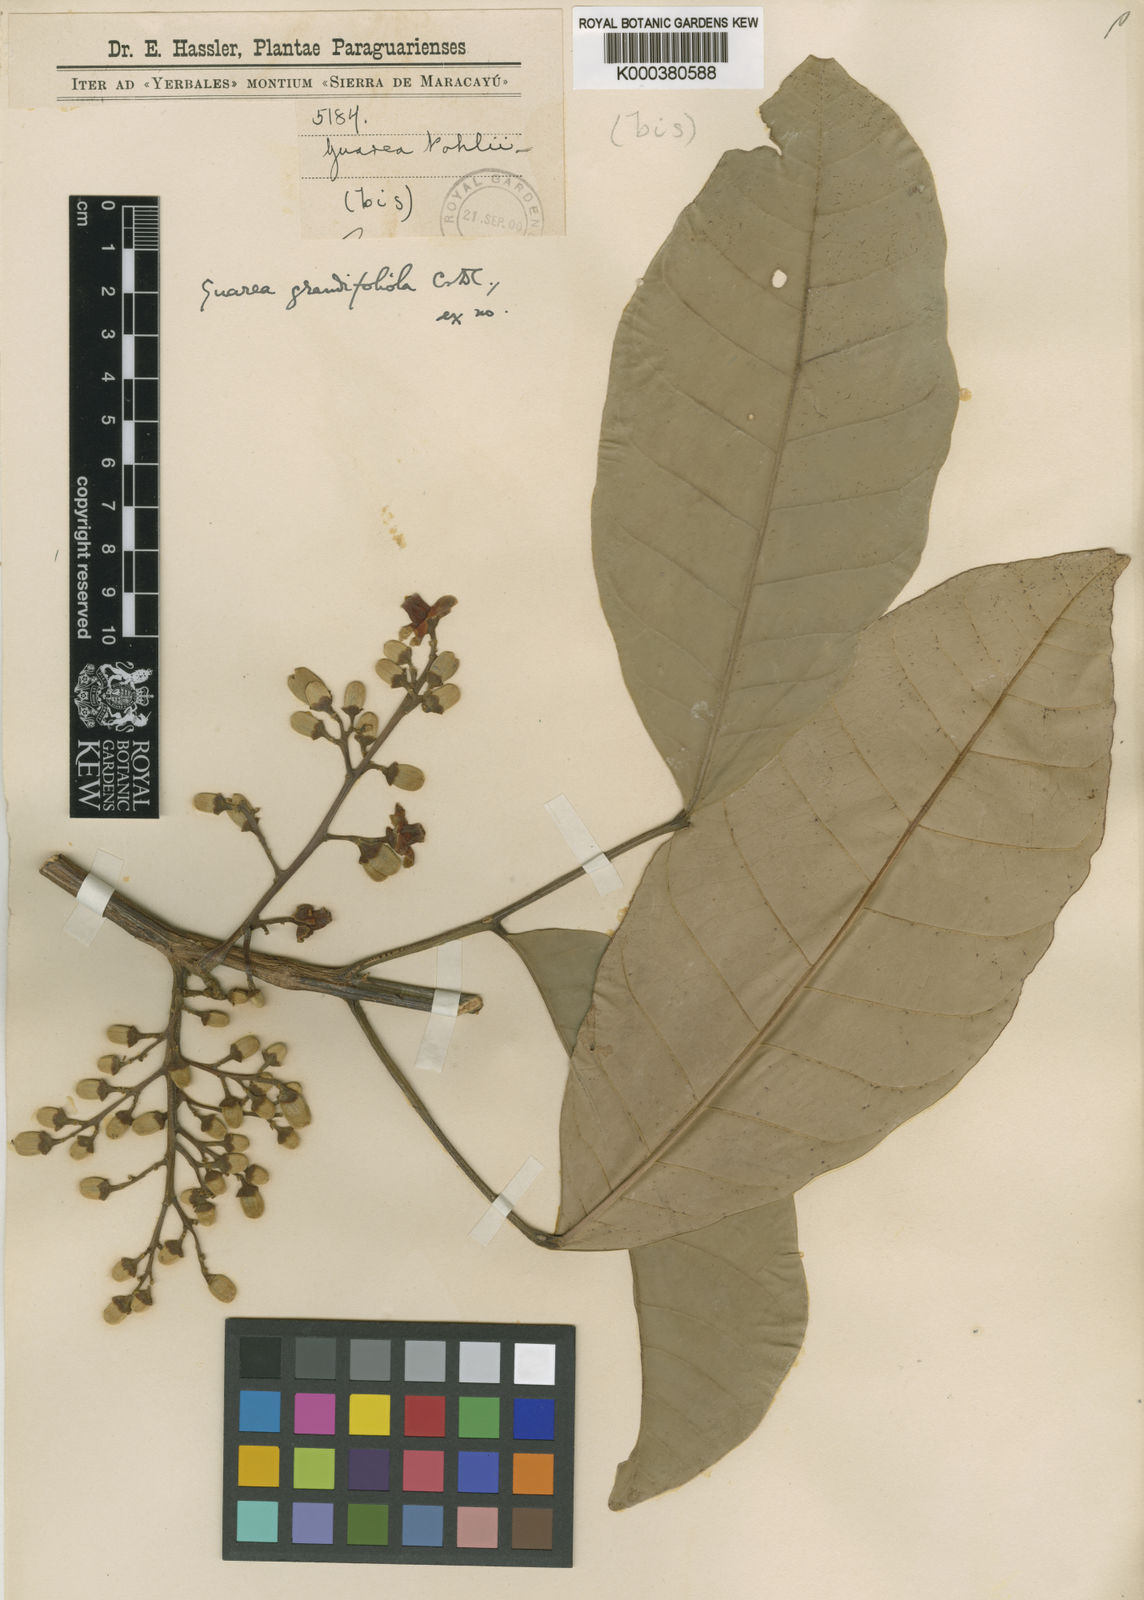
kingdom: Plantae
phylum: Tracheophyta
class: Magnoliopsida
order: Sapindales
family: Meliaceae
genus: Guarea
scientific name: Guarea kunthiana
